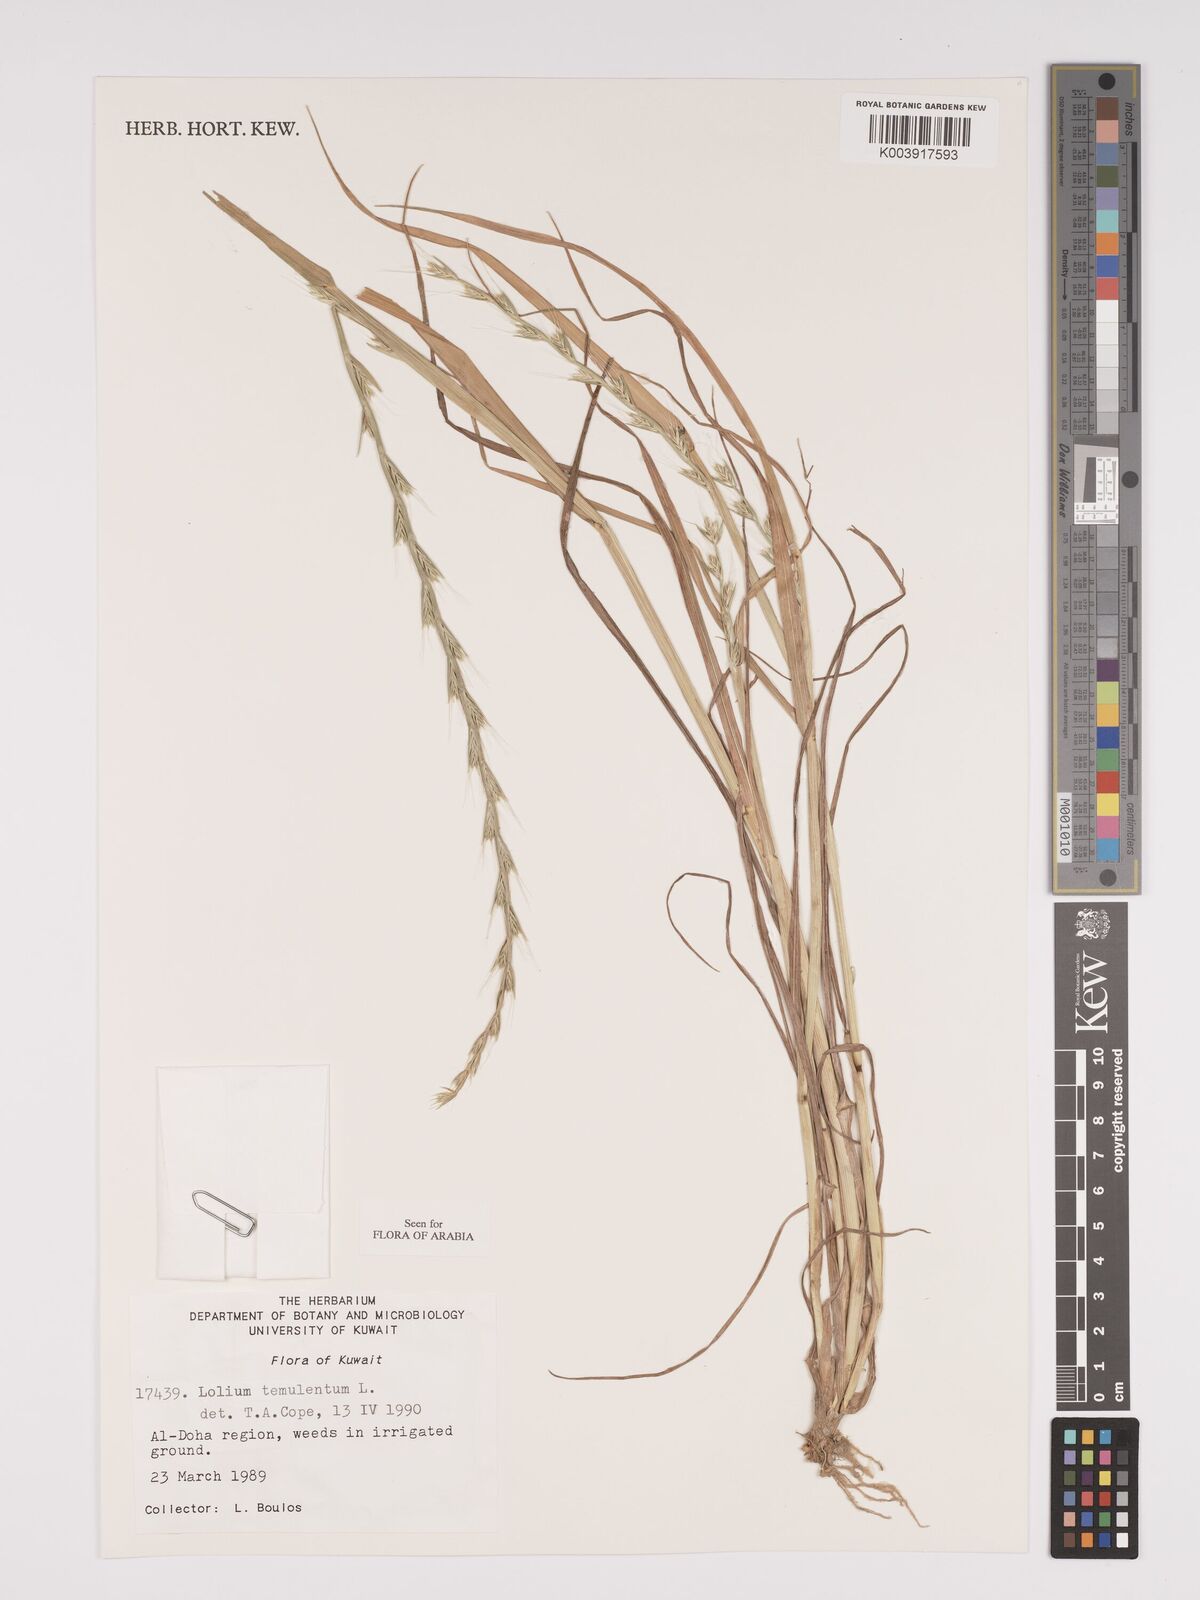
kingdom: Plantae
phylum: Tracheophyta
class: Liliopsida
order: Poales
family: Poaceae
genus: Lolium
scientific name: Lolium temulentum
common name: Darnel
